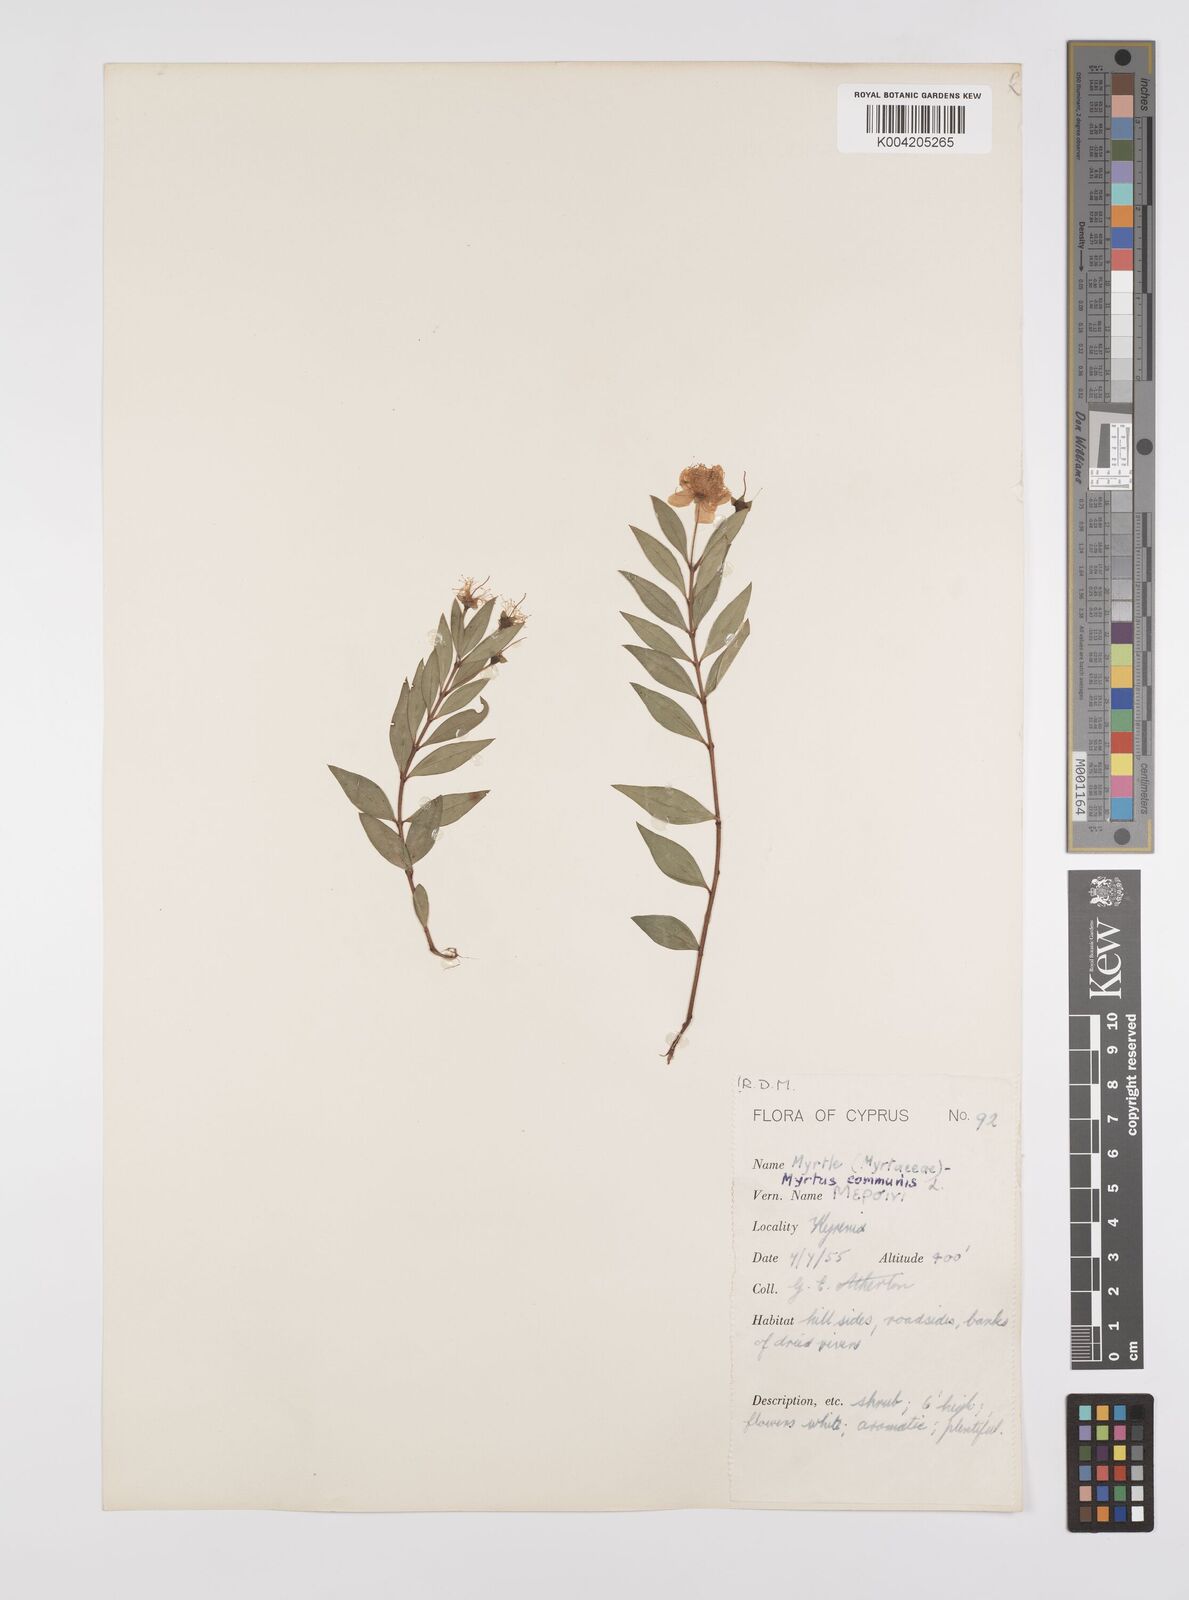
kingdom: Plantae
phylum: Tracheophyta
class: Magnoliopsida
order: Myrtales
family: Myrtaceae
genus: Myrtus
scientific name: Myrtus communis
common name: Myrtle
